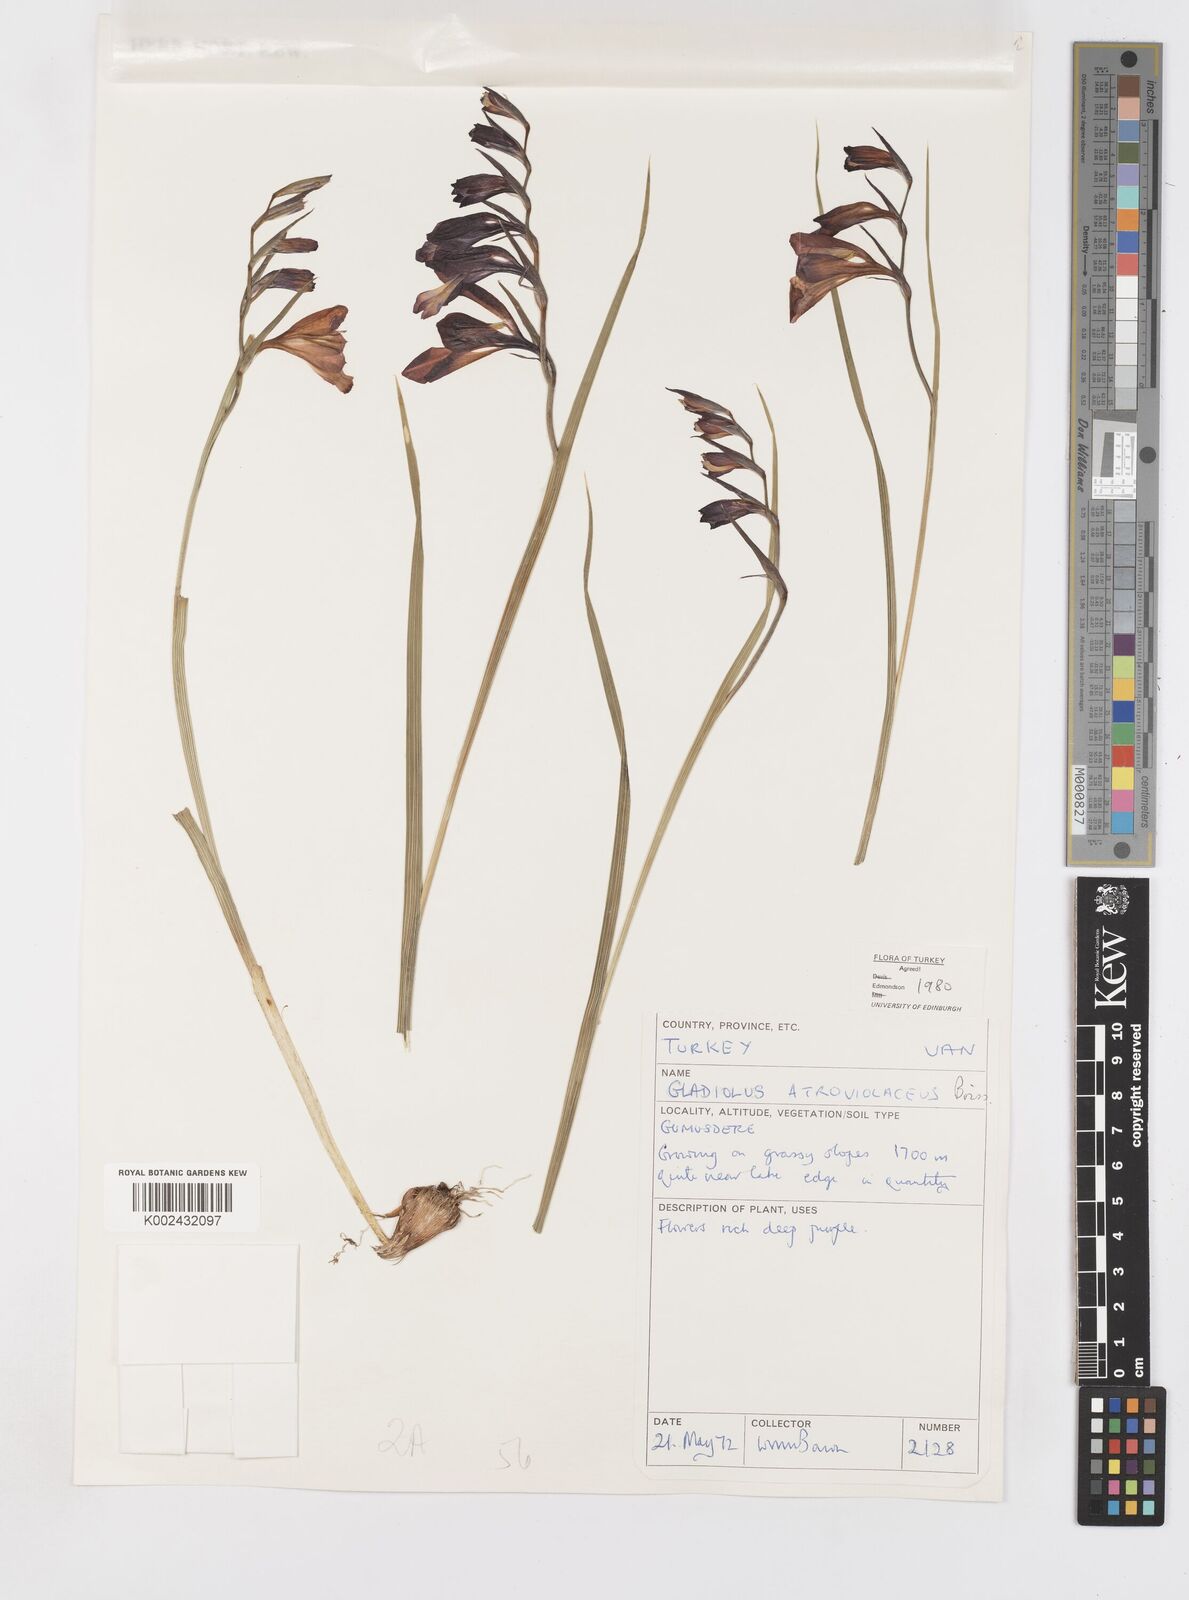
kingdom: Plantae
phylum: Tracheophyta
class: Liliopsida
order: Asparagales
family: Iridaceae
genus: Gladiolus
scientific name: Gladiolus atroviolaceus
